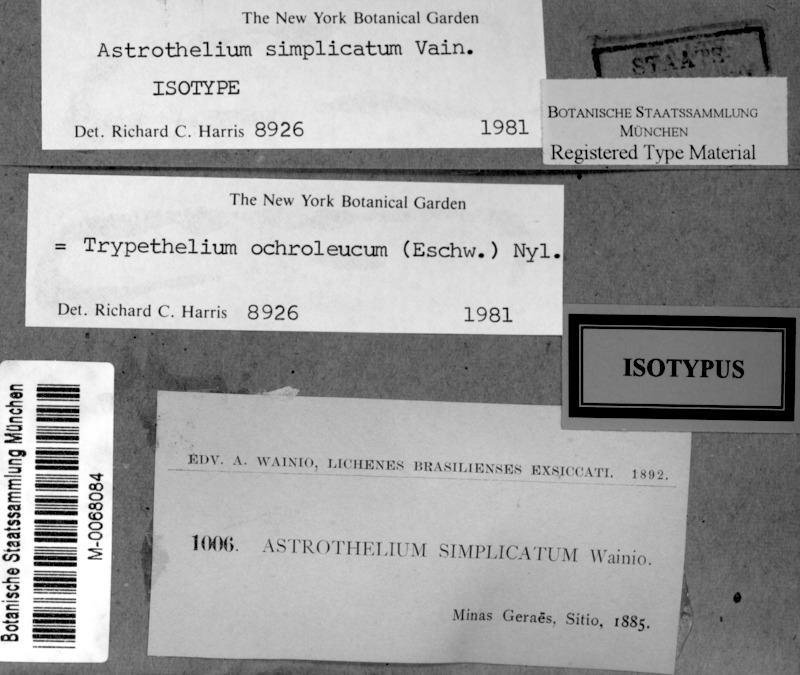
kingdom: Fungi
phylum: Ascomycota
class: Dothideomycetes
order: Trypetheliales
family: Trypetheliaceae
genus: Trypethelium
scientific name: Trypethelium ochroleucum
